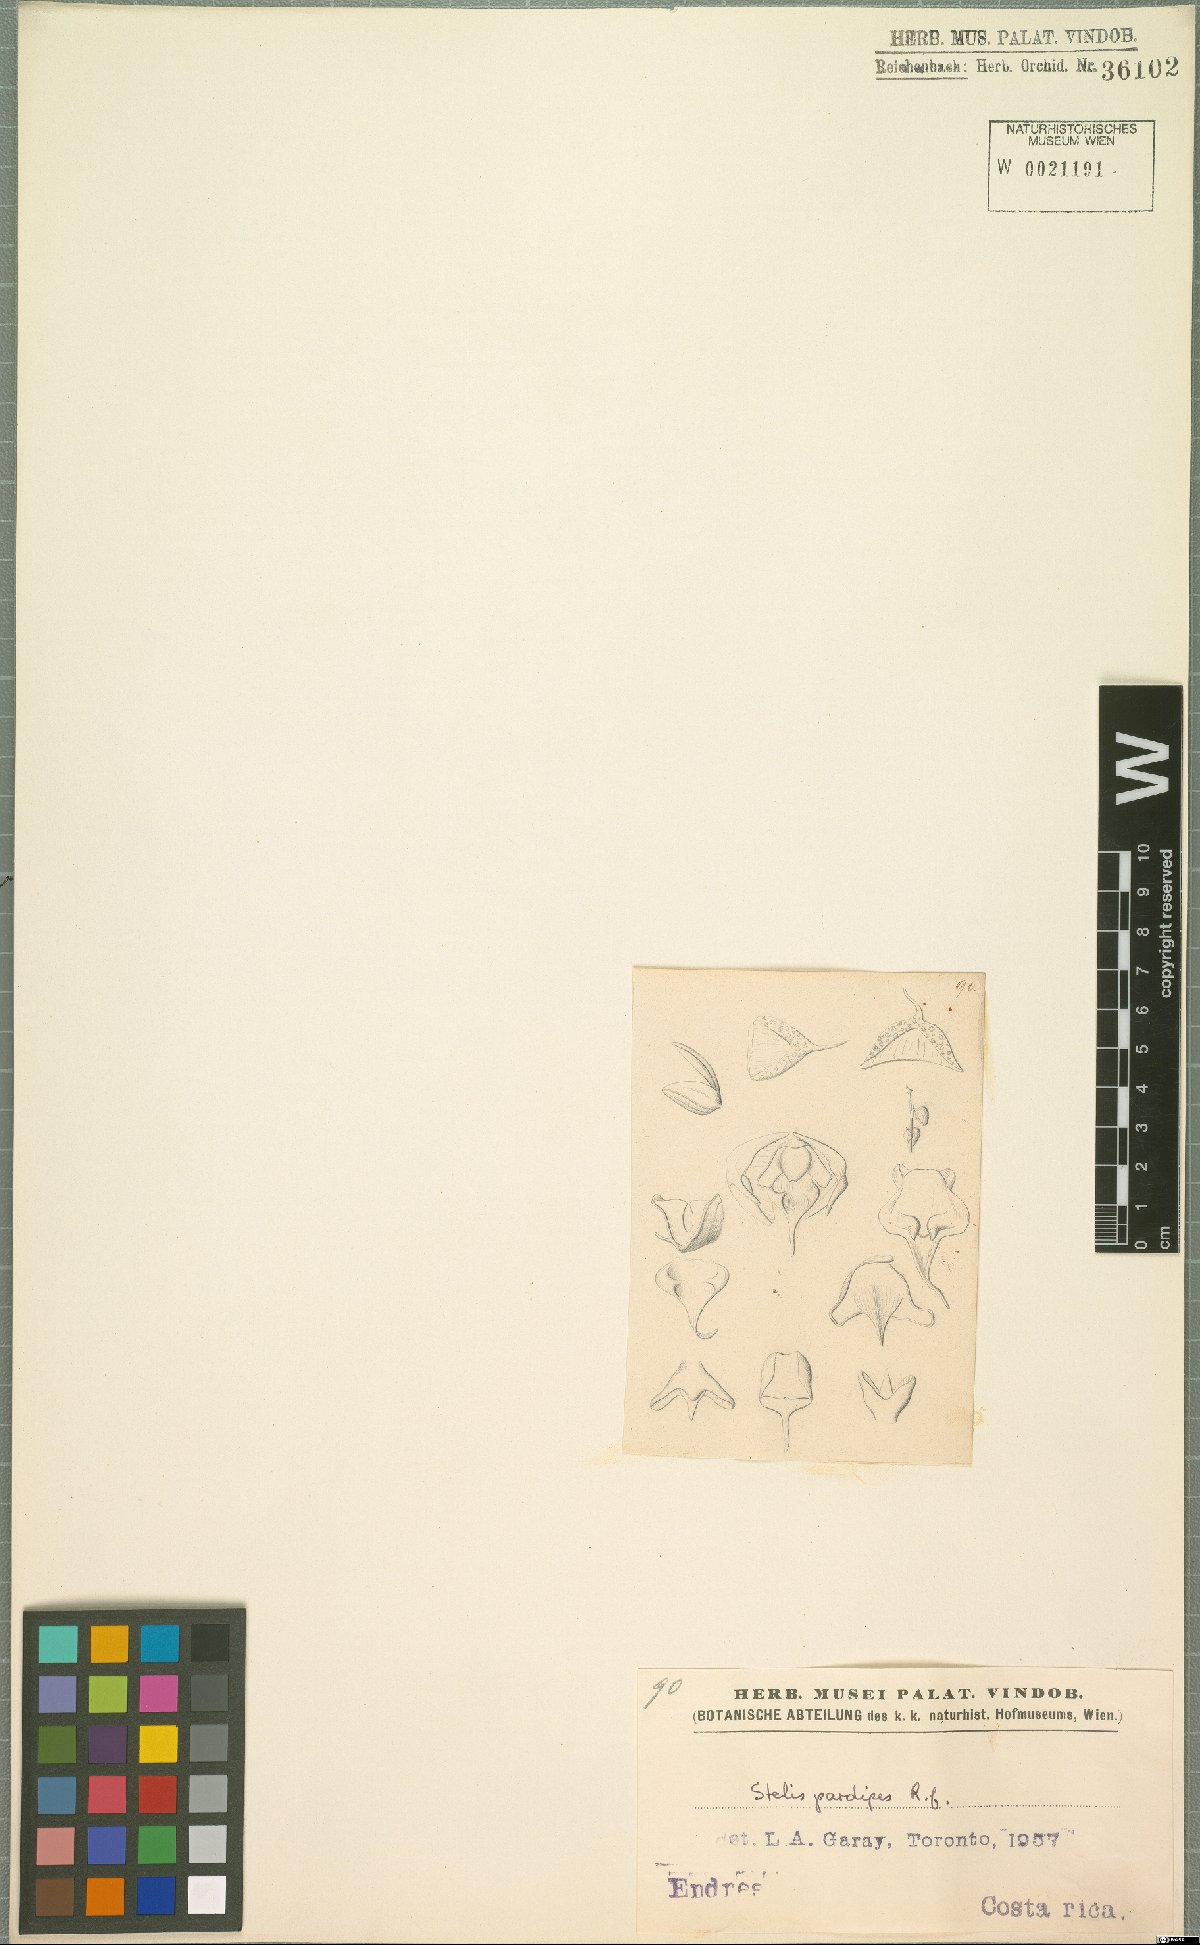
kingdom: Plantae
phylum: Tracheophyta
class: Liliopsida
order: Asparagales
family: Orchidaceae
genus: Stelis
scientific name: Stelis pardipes
